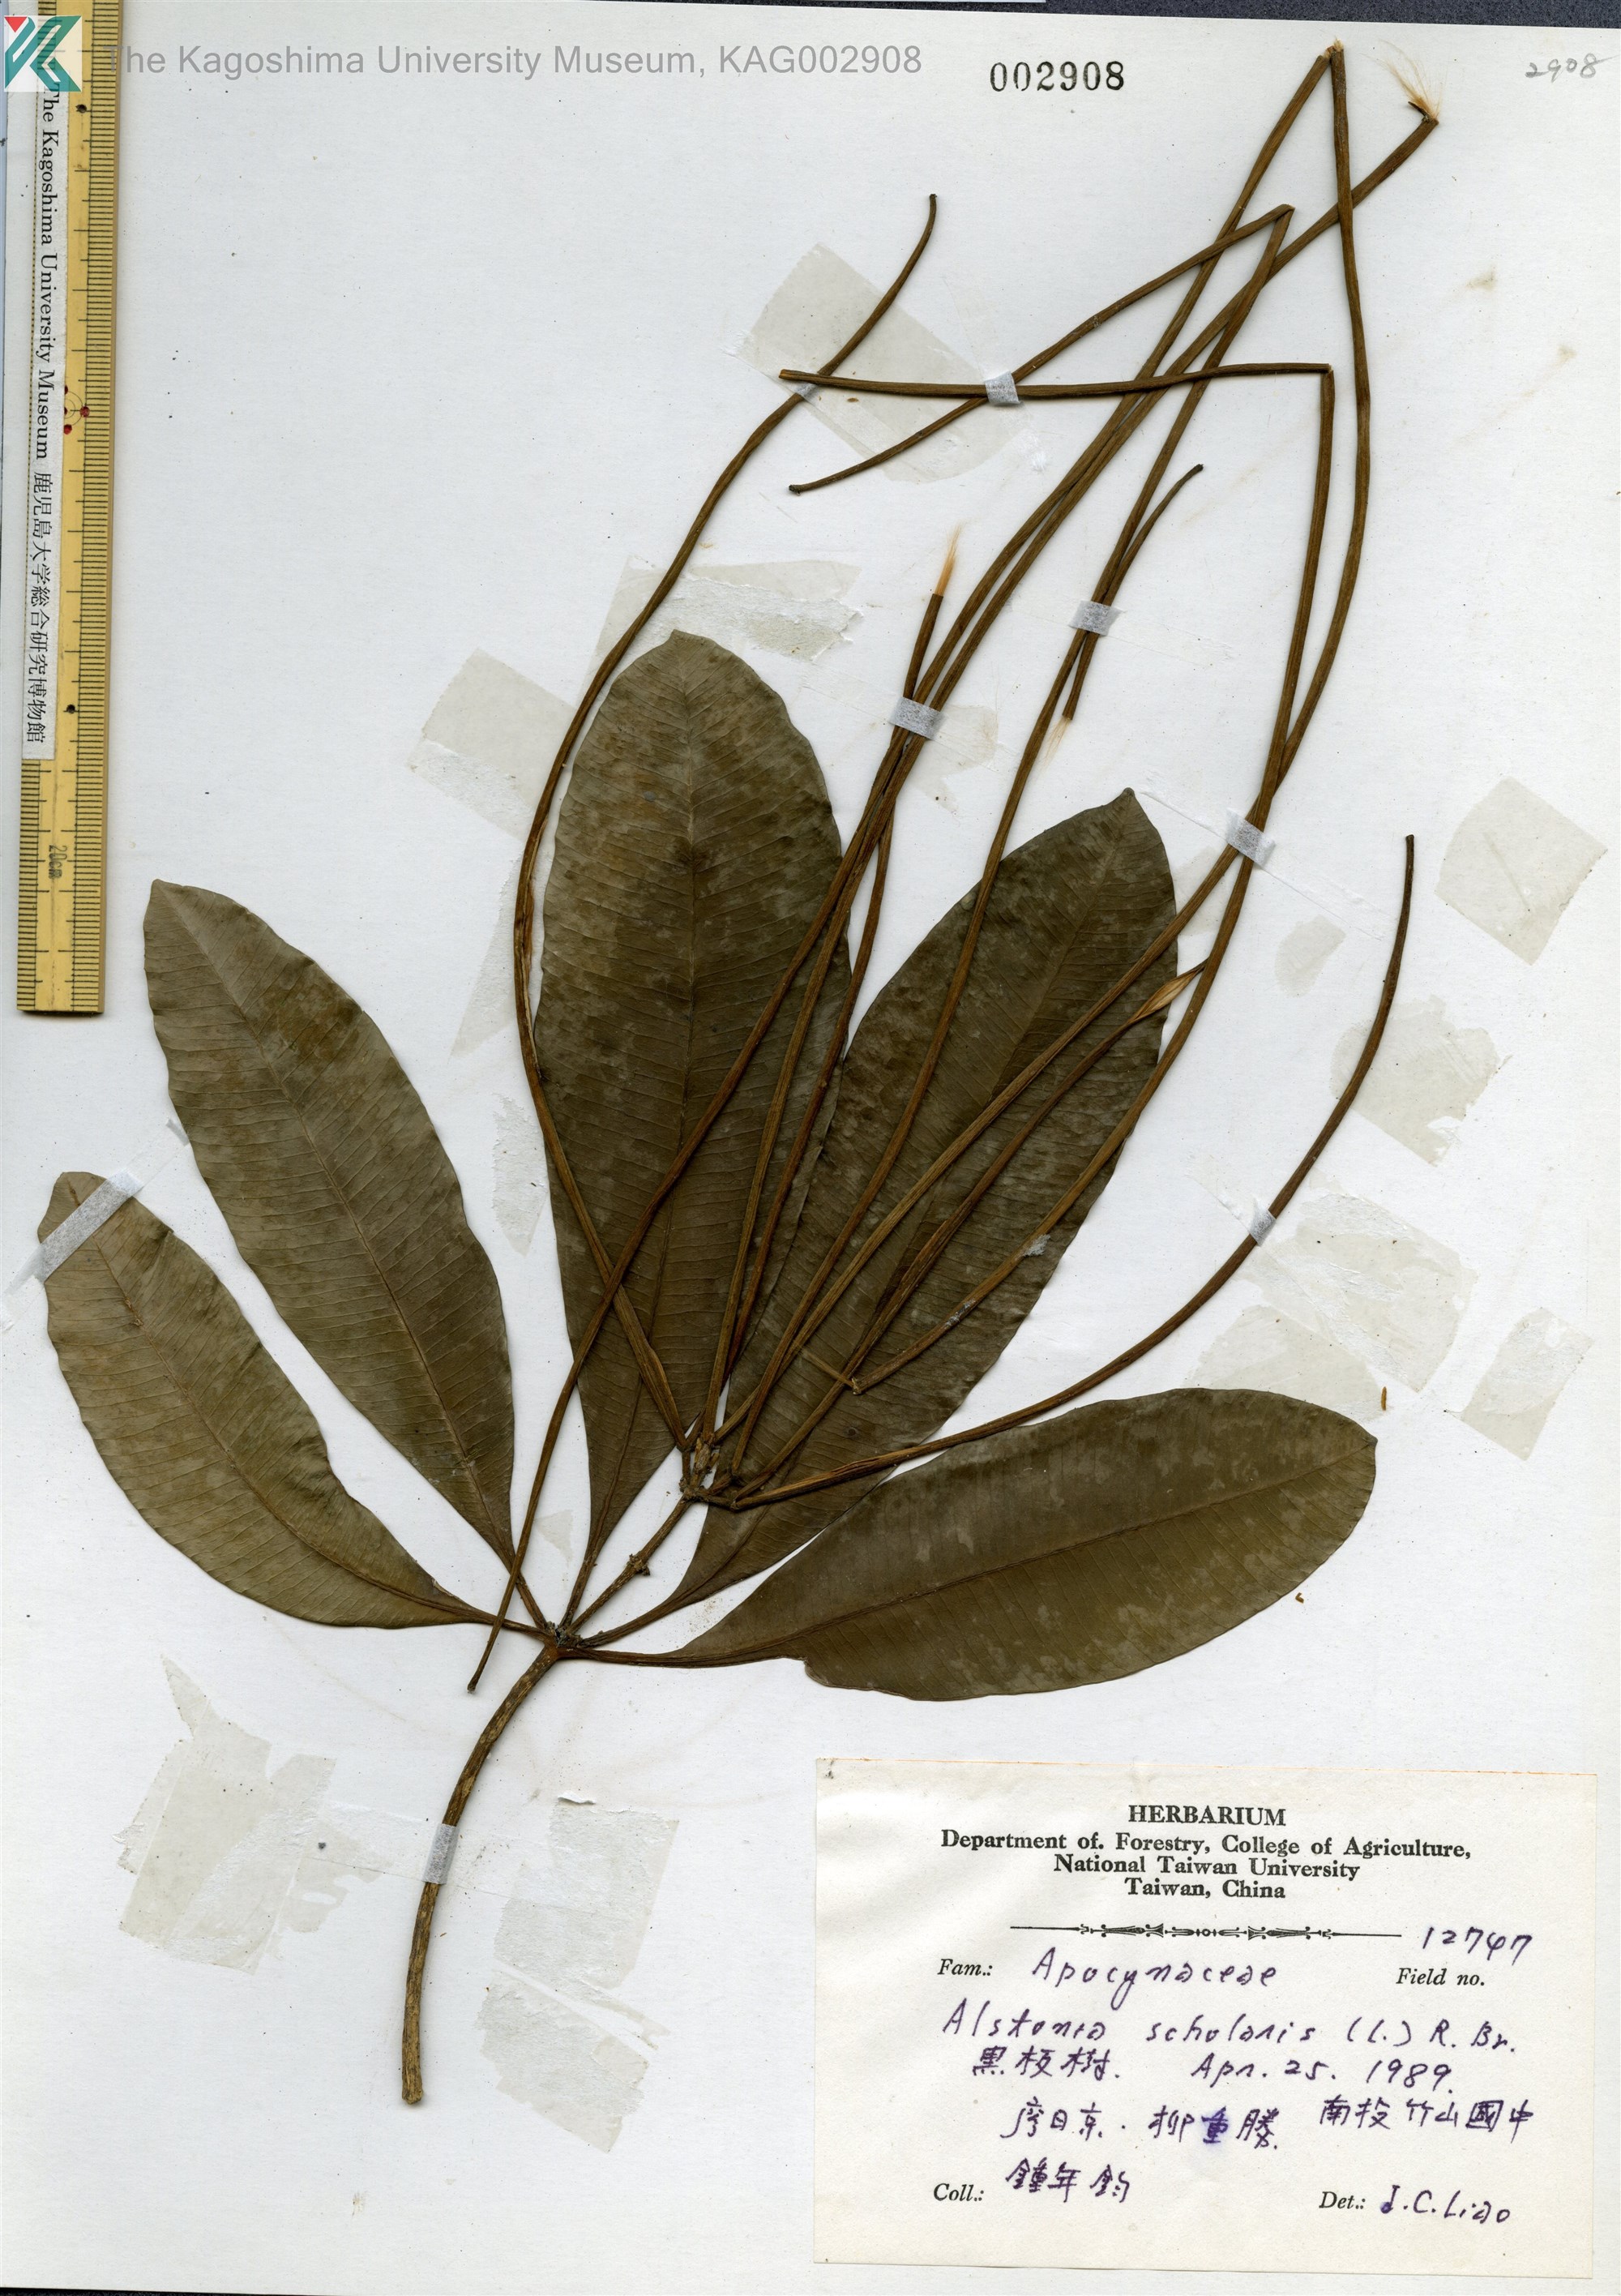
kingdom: Plantae
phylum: Tracheophyta
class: Magnoliopsida
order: Gentianales
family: Apocynaceae
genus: Alstonia
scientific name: Alstonia scholaris
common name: White cheesewood
